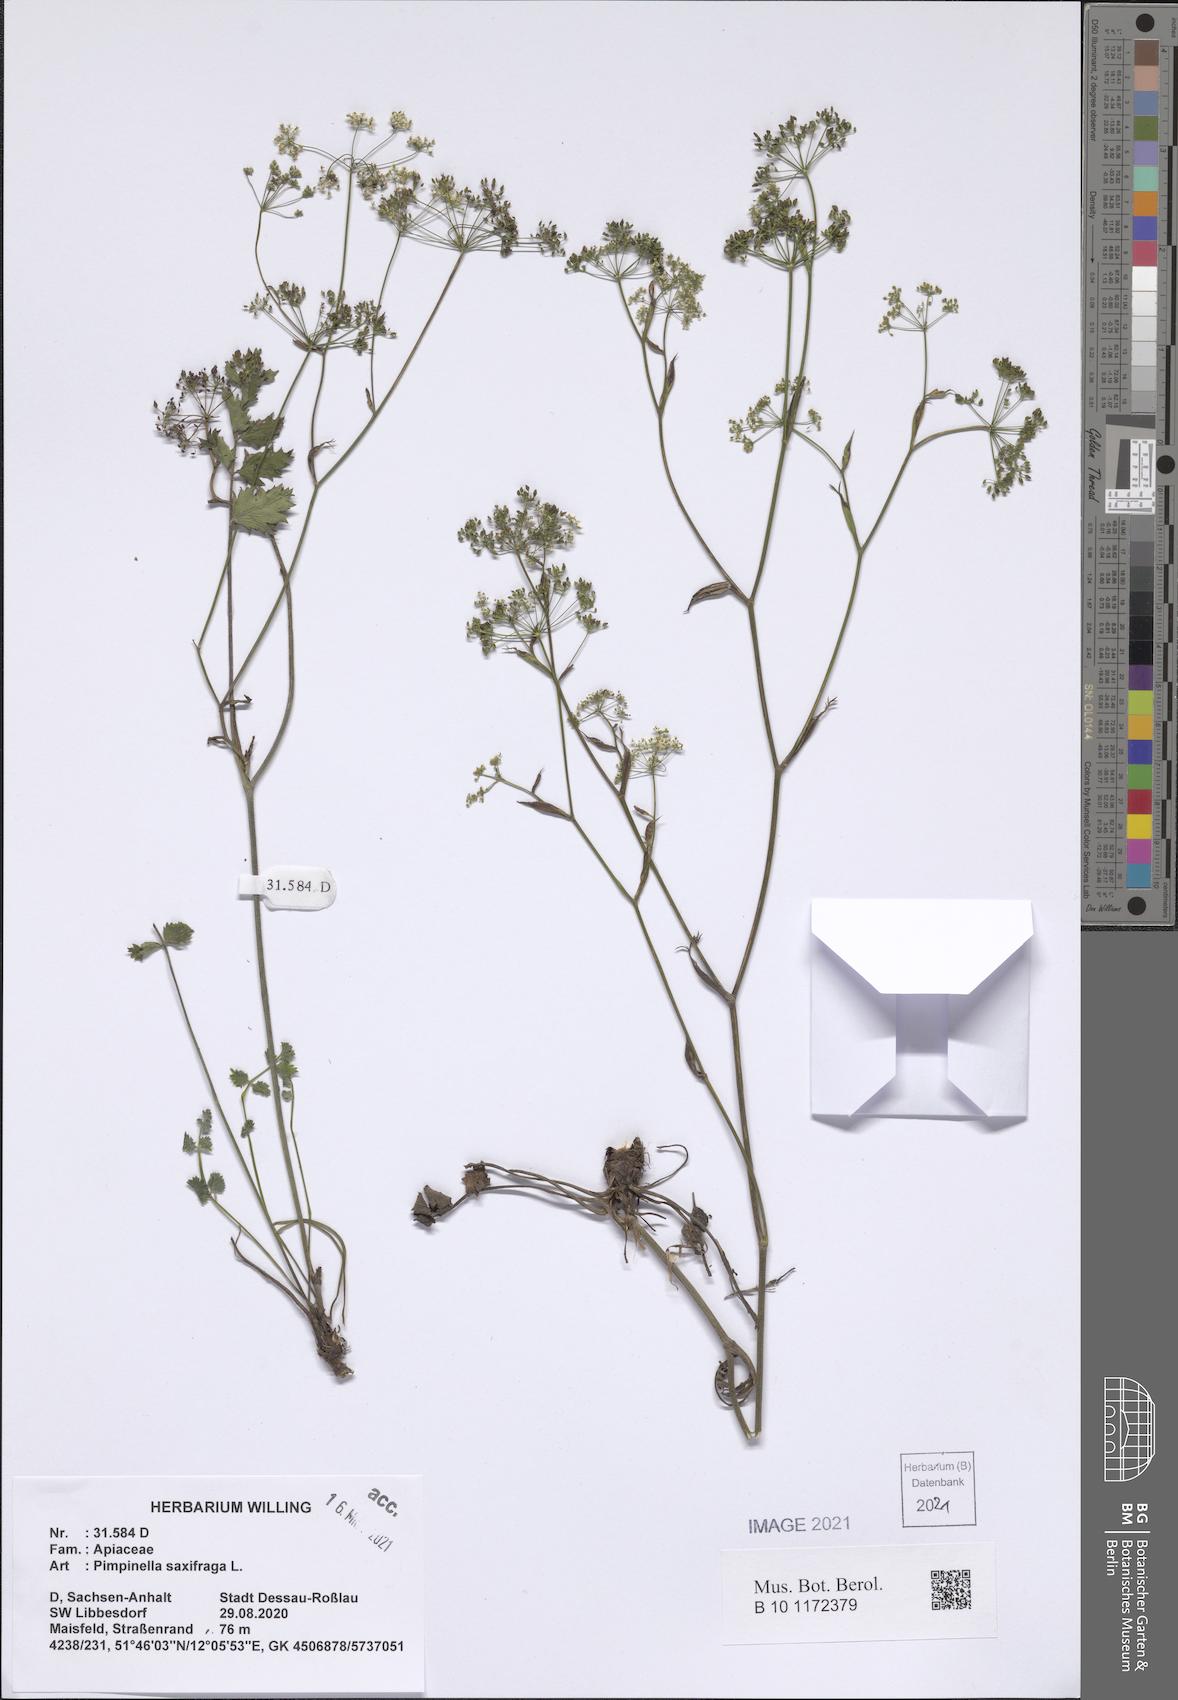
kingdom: Plantae
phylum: Tracheophyta
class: Magnoliopsida
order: Apiales
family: Apiaceae
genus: Pimpinella
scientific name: Pimpinella saxifraga
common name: Burnet-saxifrage
